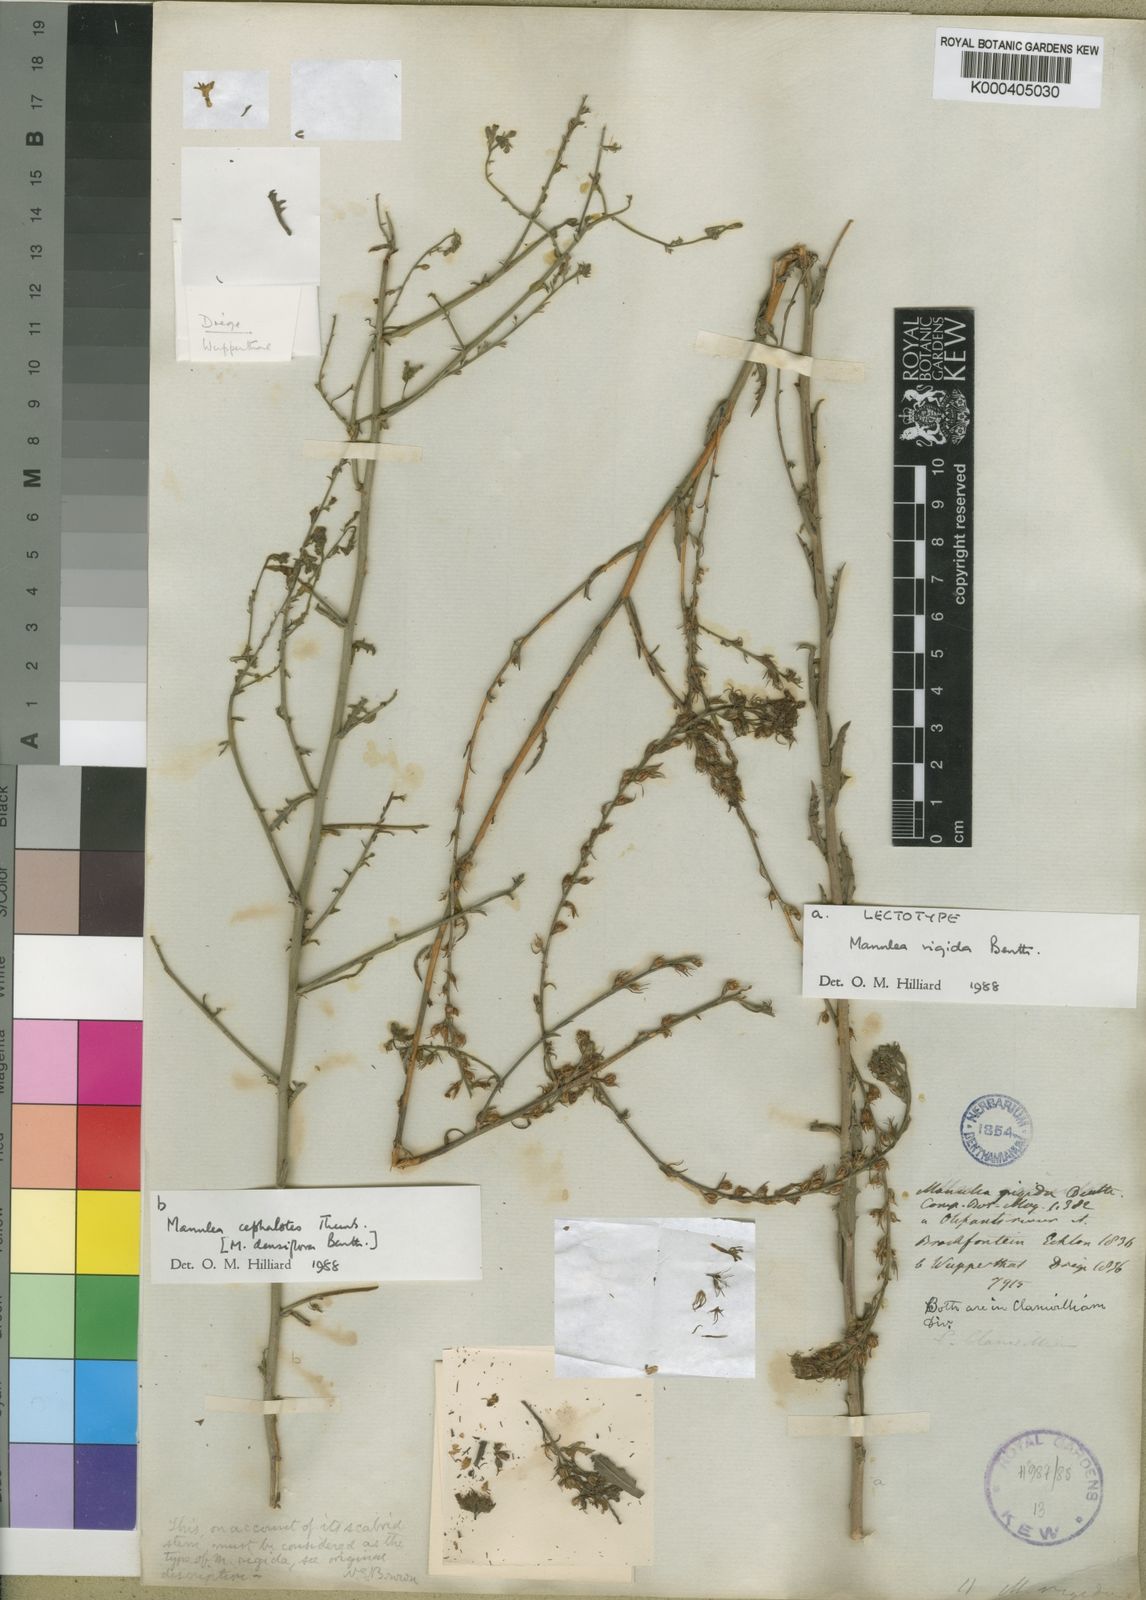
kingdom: Plantae
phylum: Tracheophyta
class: Magnoliopsida
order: Lamiales
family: Scrophulariaceae
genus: Manulea
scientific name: Manulea rigida
